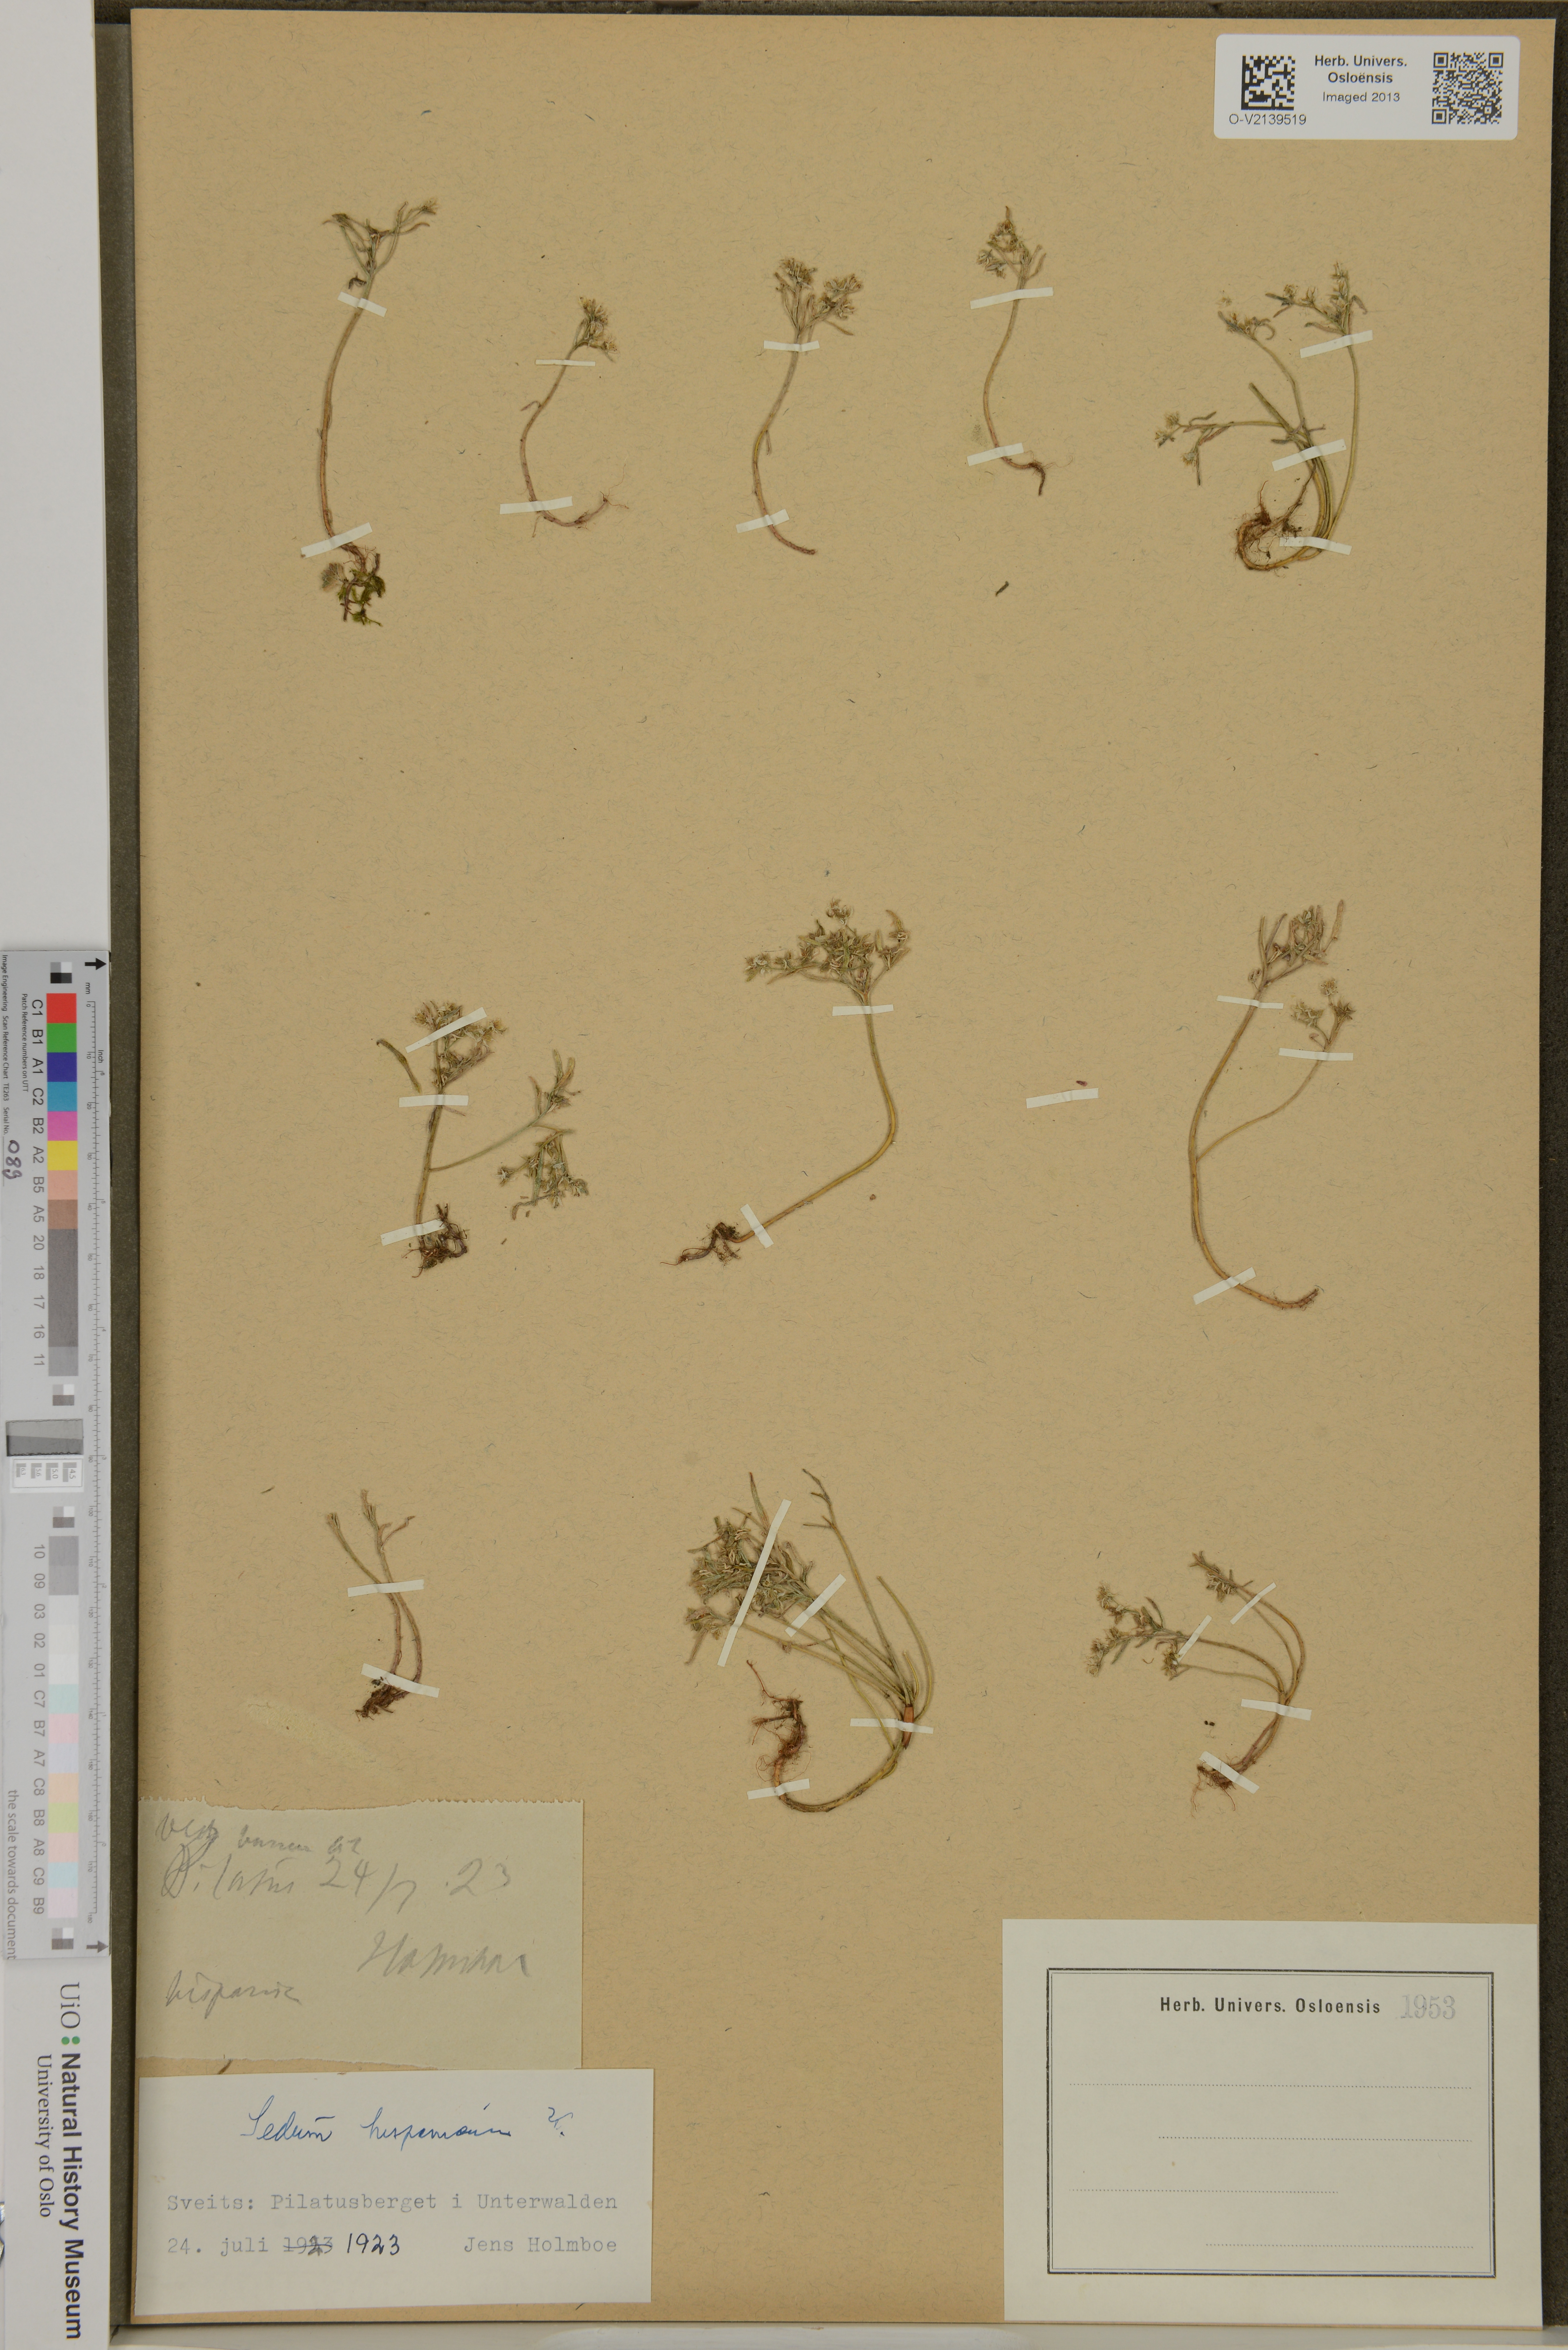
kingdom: Plantae
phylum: Tracheophyta
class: Magnoliopsida
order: Saxifragales
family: Crassulaceae
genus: Sedum
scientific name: Sedum hispanicum
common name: Spanish stonecrop
